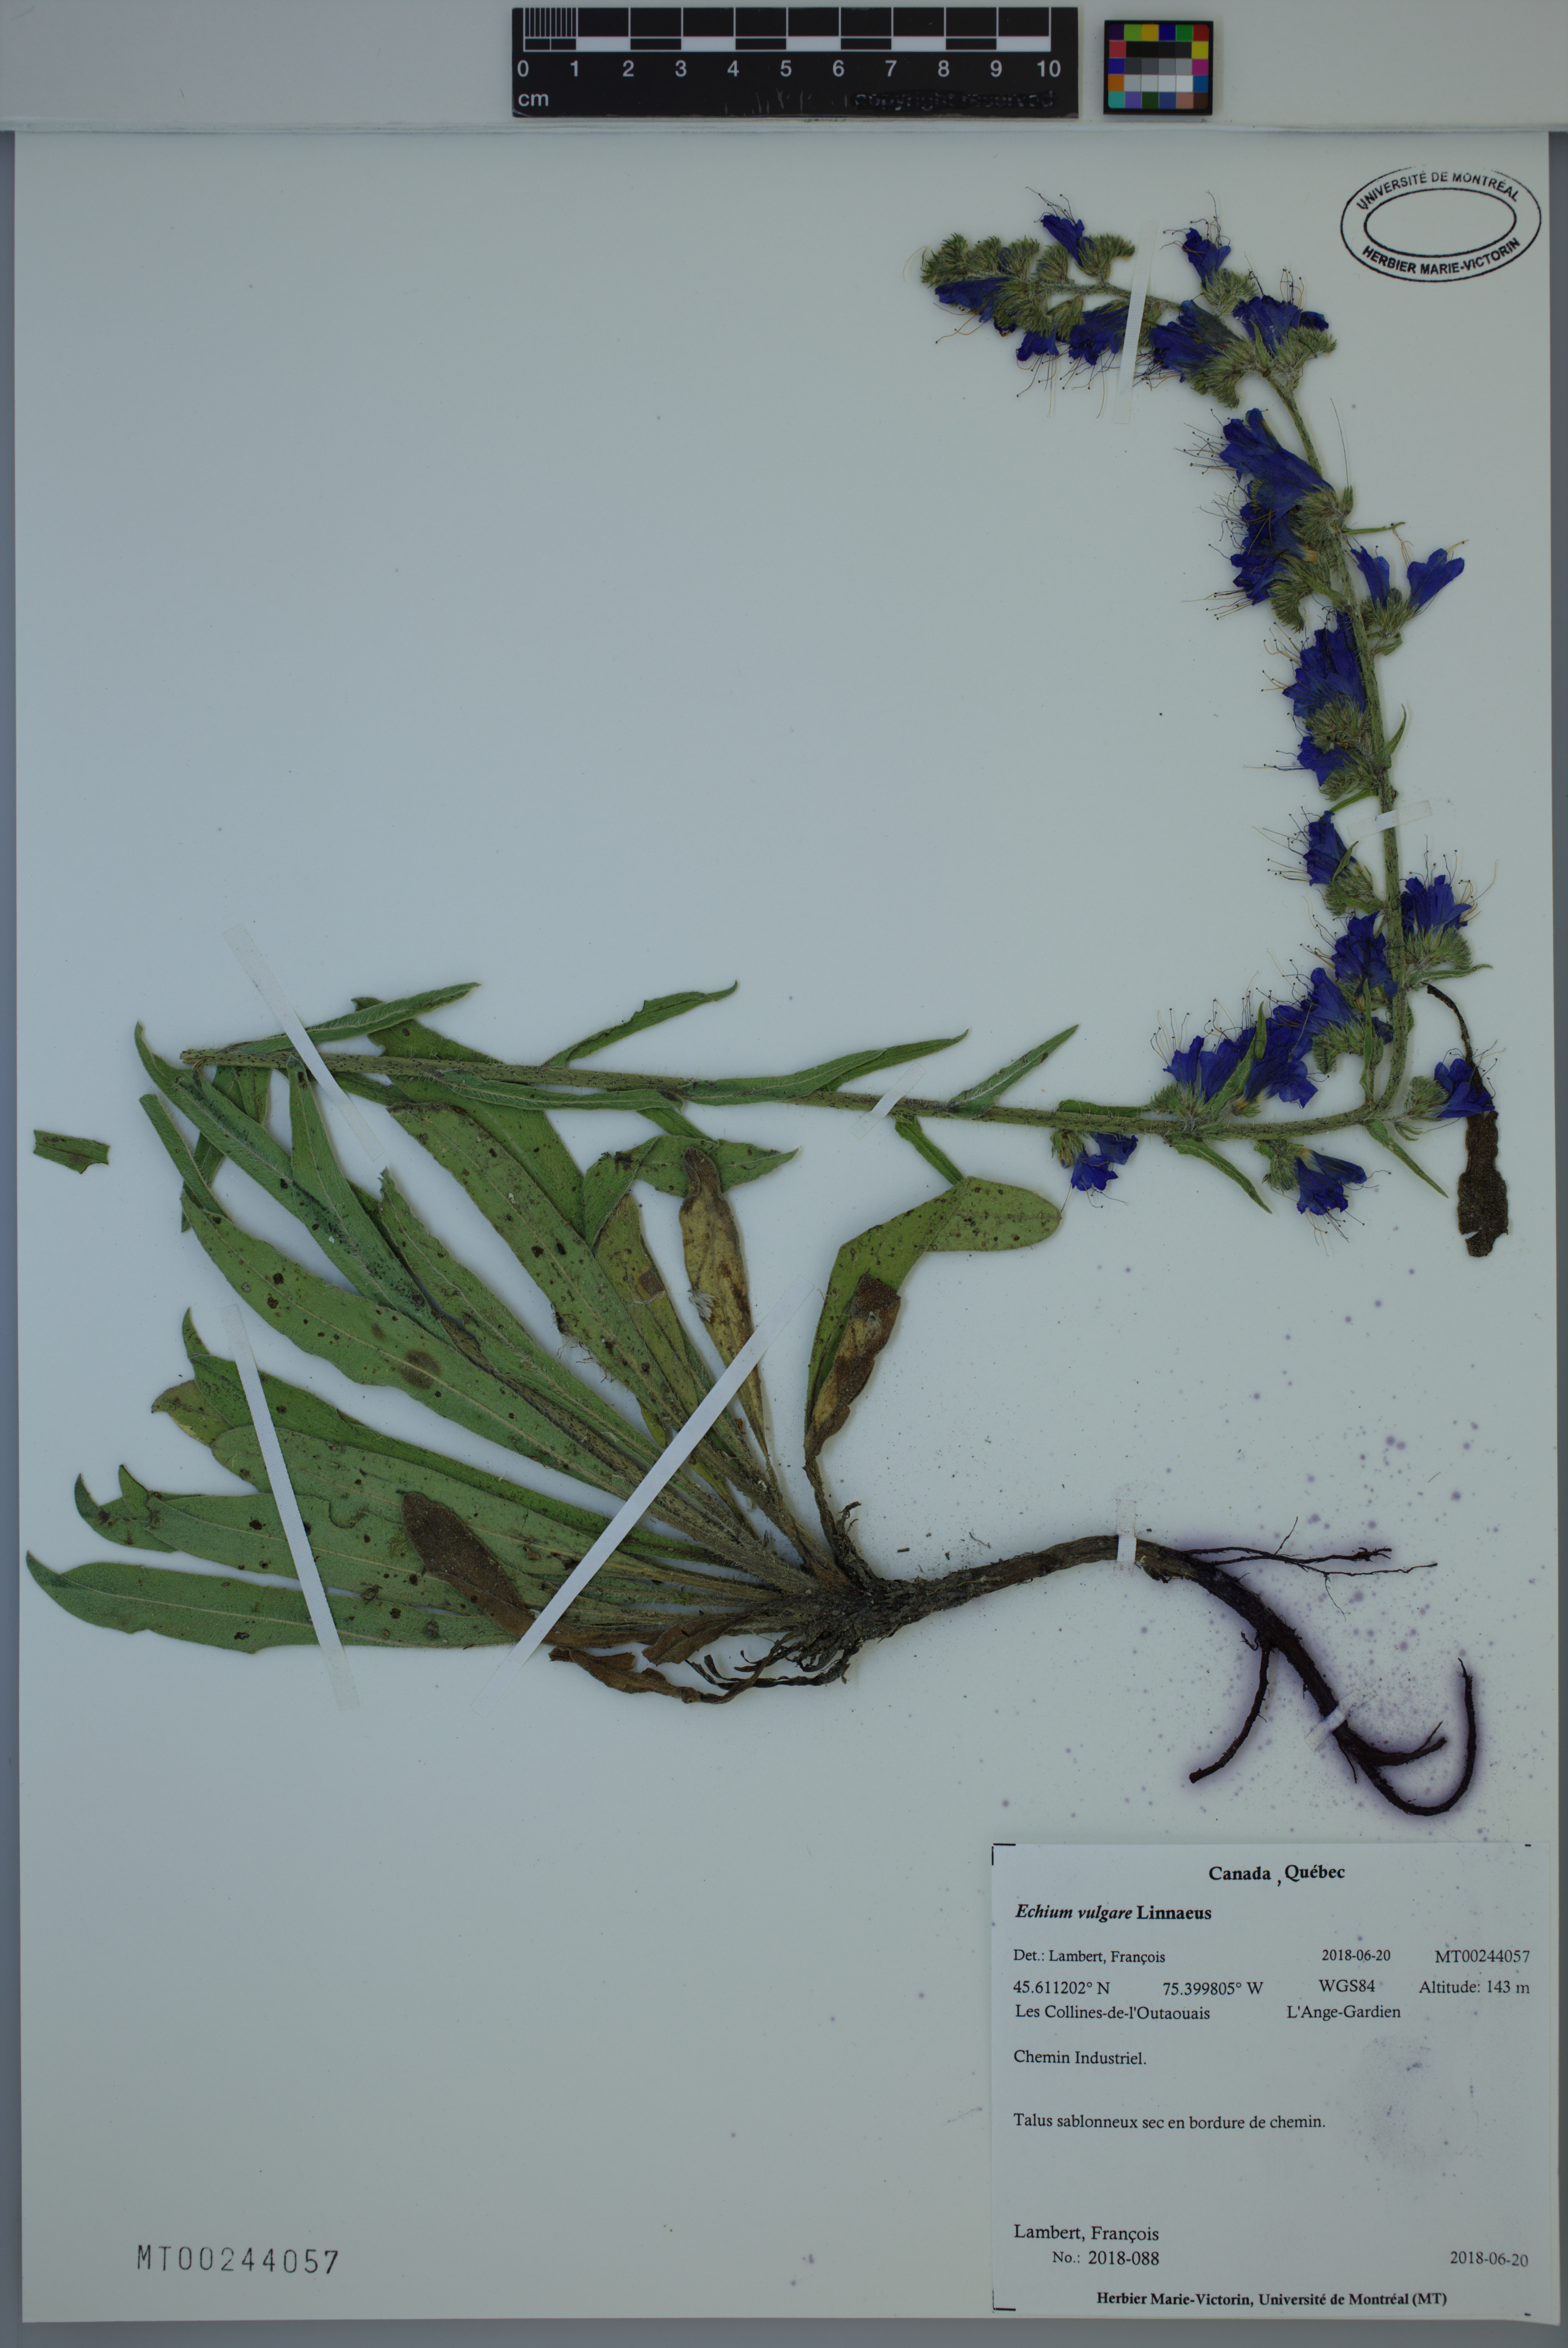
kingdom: Plantae
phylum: Tracheophyta
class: Magnoliopsida
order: Boraginales
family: Boraginaceae
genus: Echium
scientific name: Echium vulgare
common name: Common viper's bugloss
